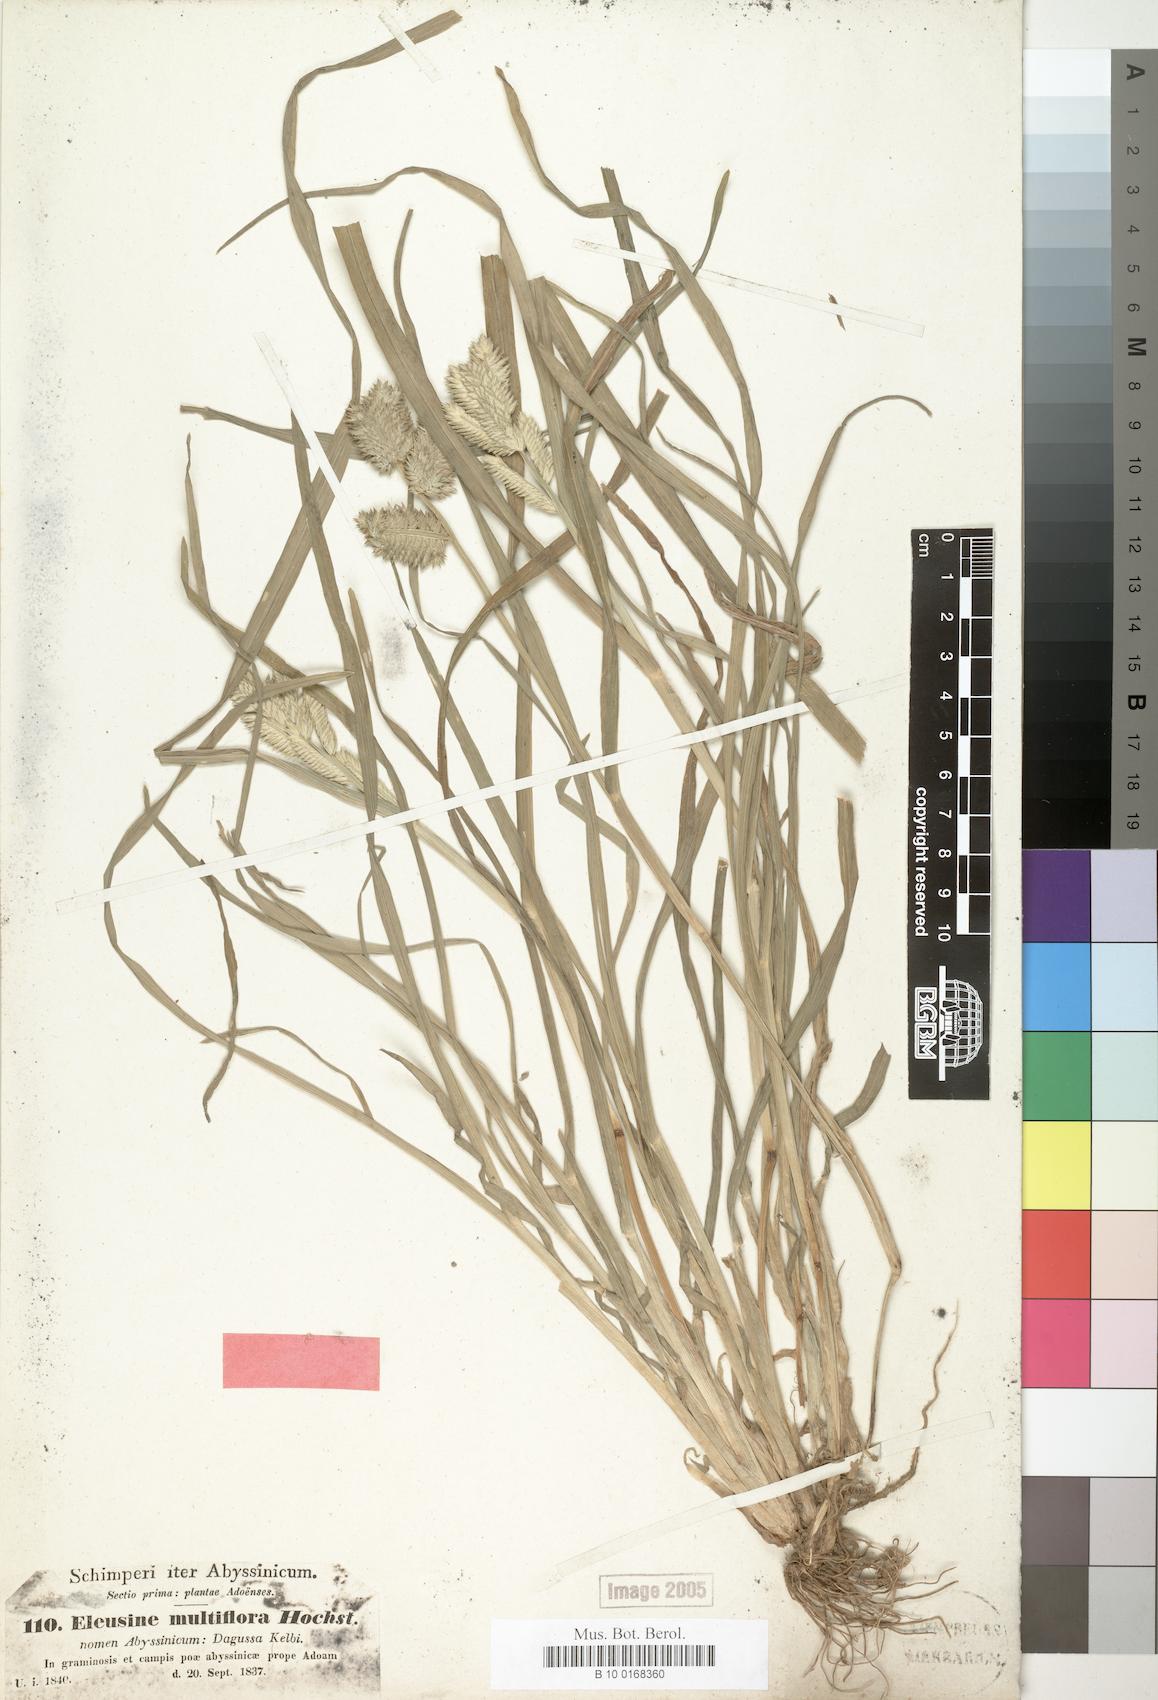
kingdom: Plantae
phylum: Tracheophyta
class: Liliopsida
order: Poales
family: Poaceae
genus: Eleusine
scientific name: Eleusine multiflora
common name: Fat-spiked yard-grass
